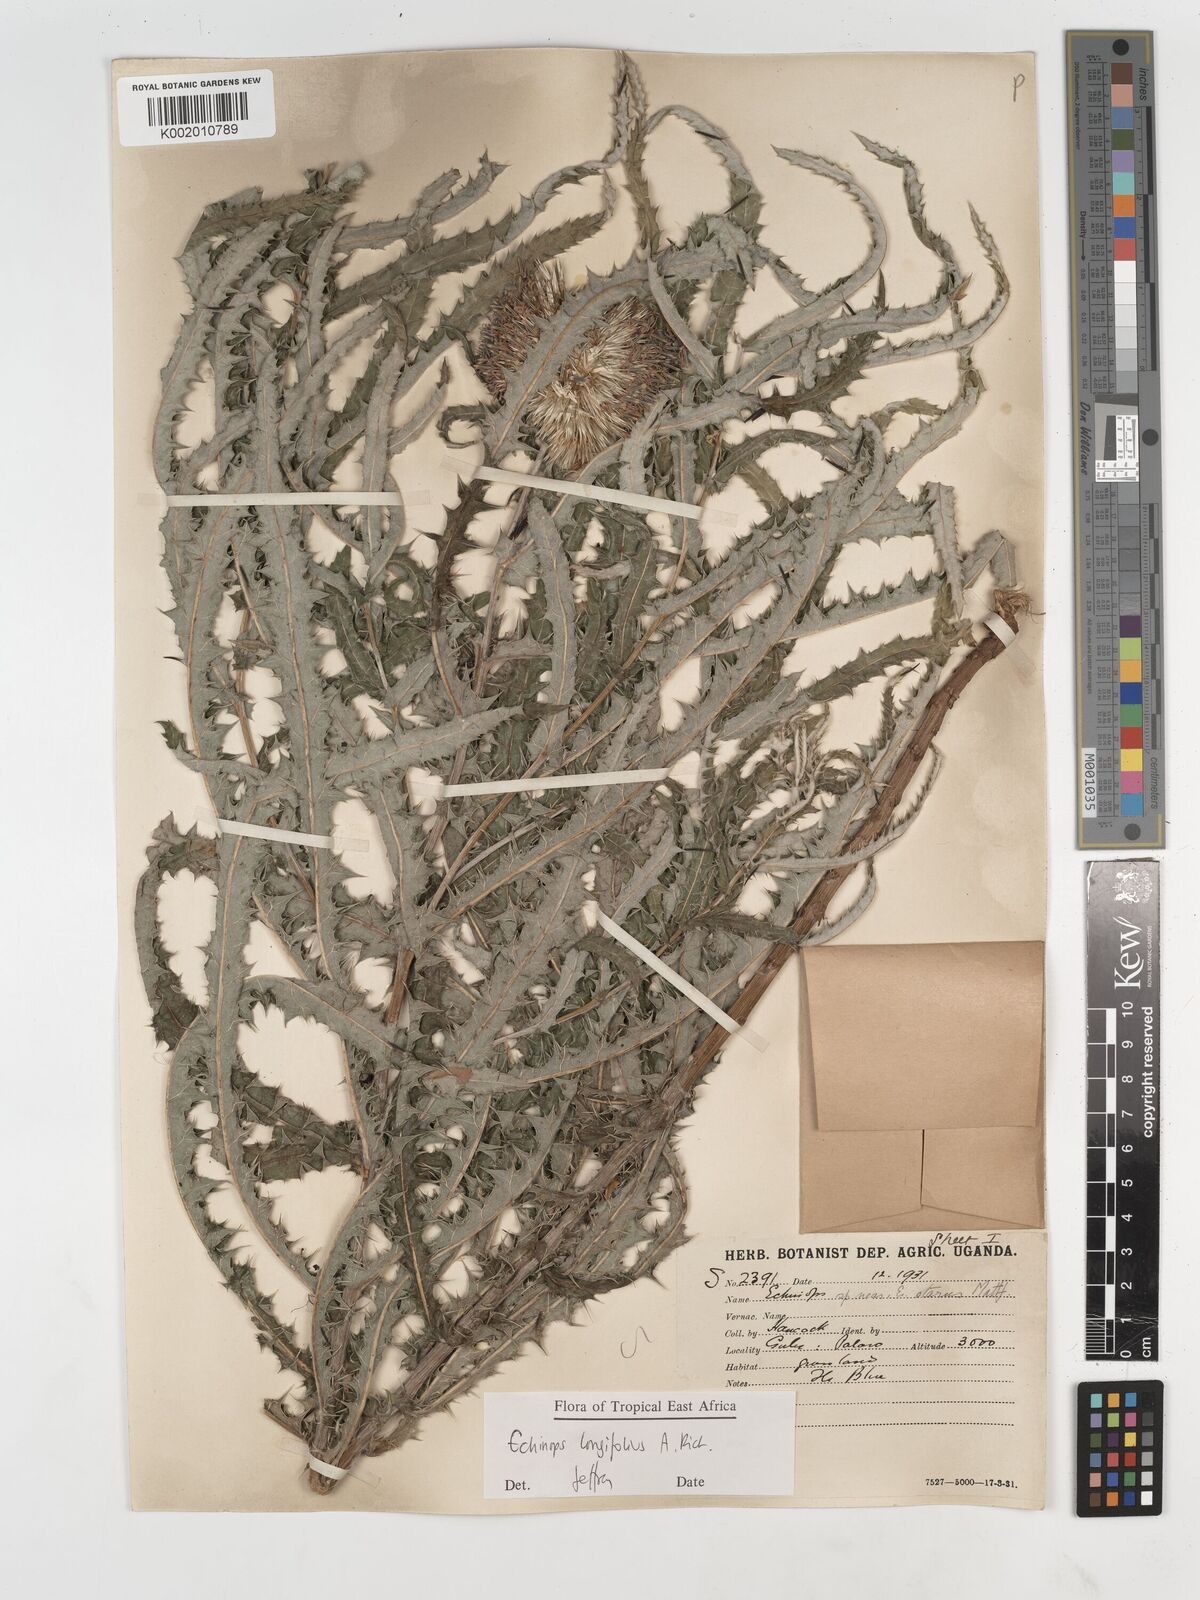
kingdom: Plantae
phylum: Tracheophyta
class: Magnoliopsida
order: Asterales
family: Asteraceae
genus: Echinops
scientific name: Echinops longifolius
